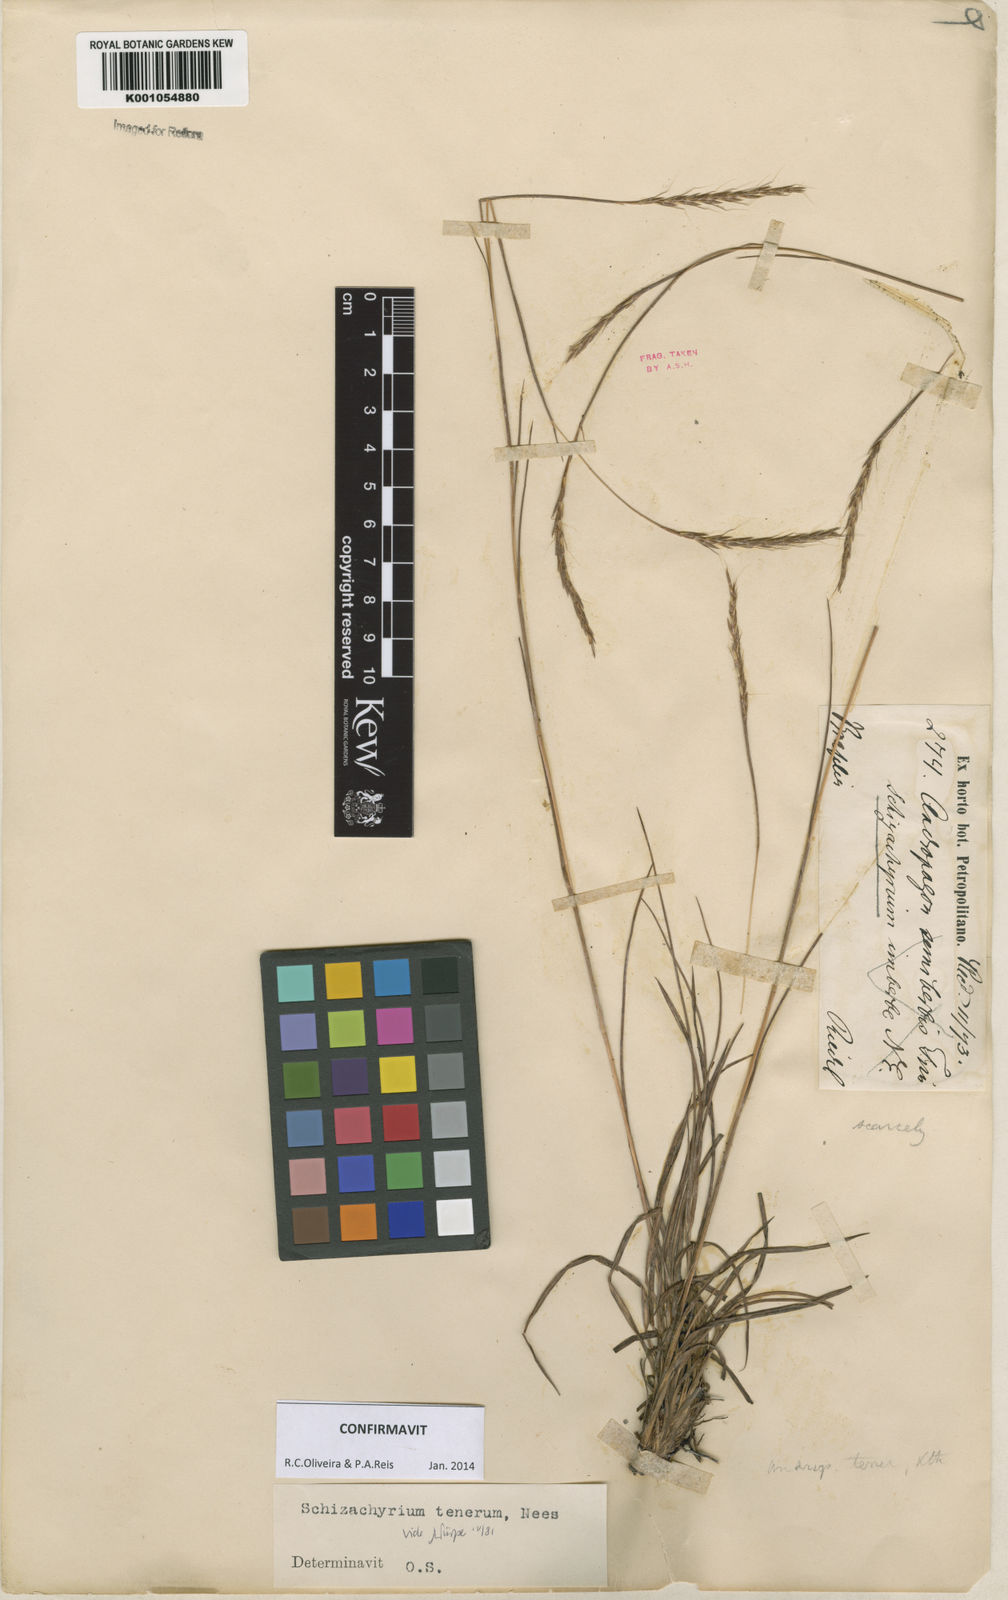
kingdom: Plantae
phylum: Tracheophyta
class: Liliopsida
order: Poales
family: Poaceae
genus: Andropogon
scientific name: Andropogon tener
